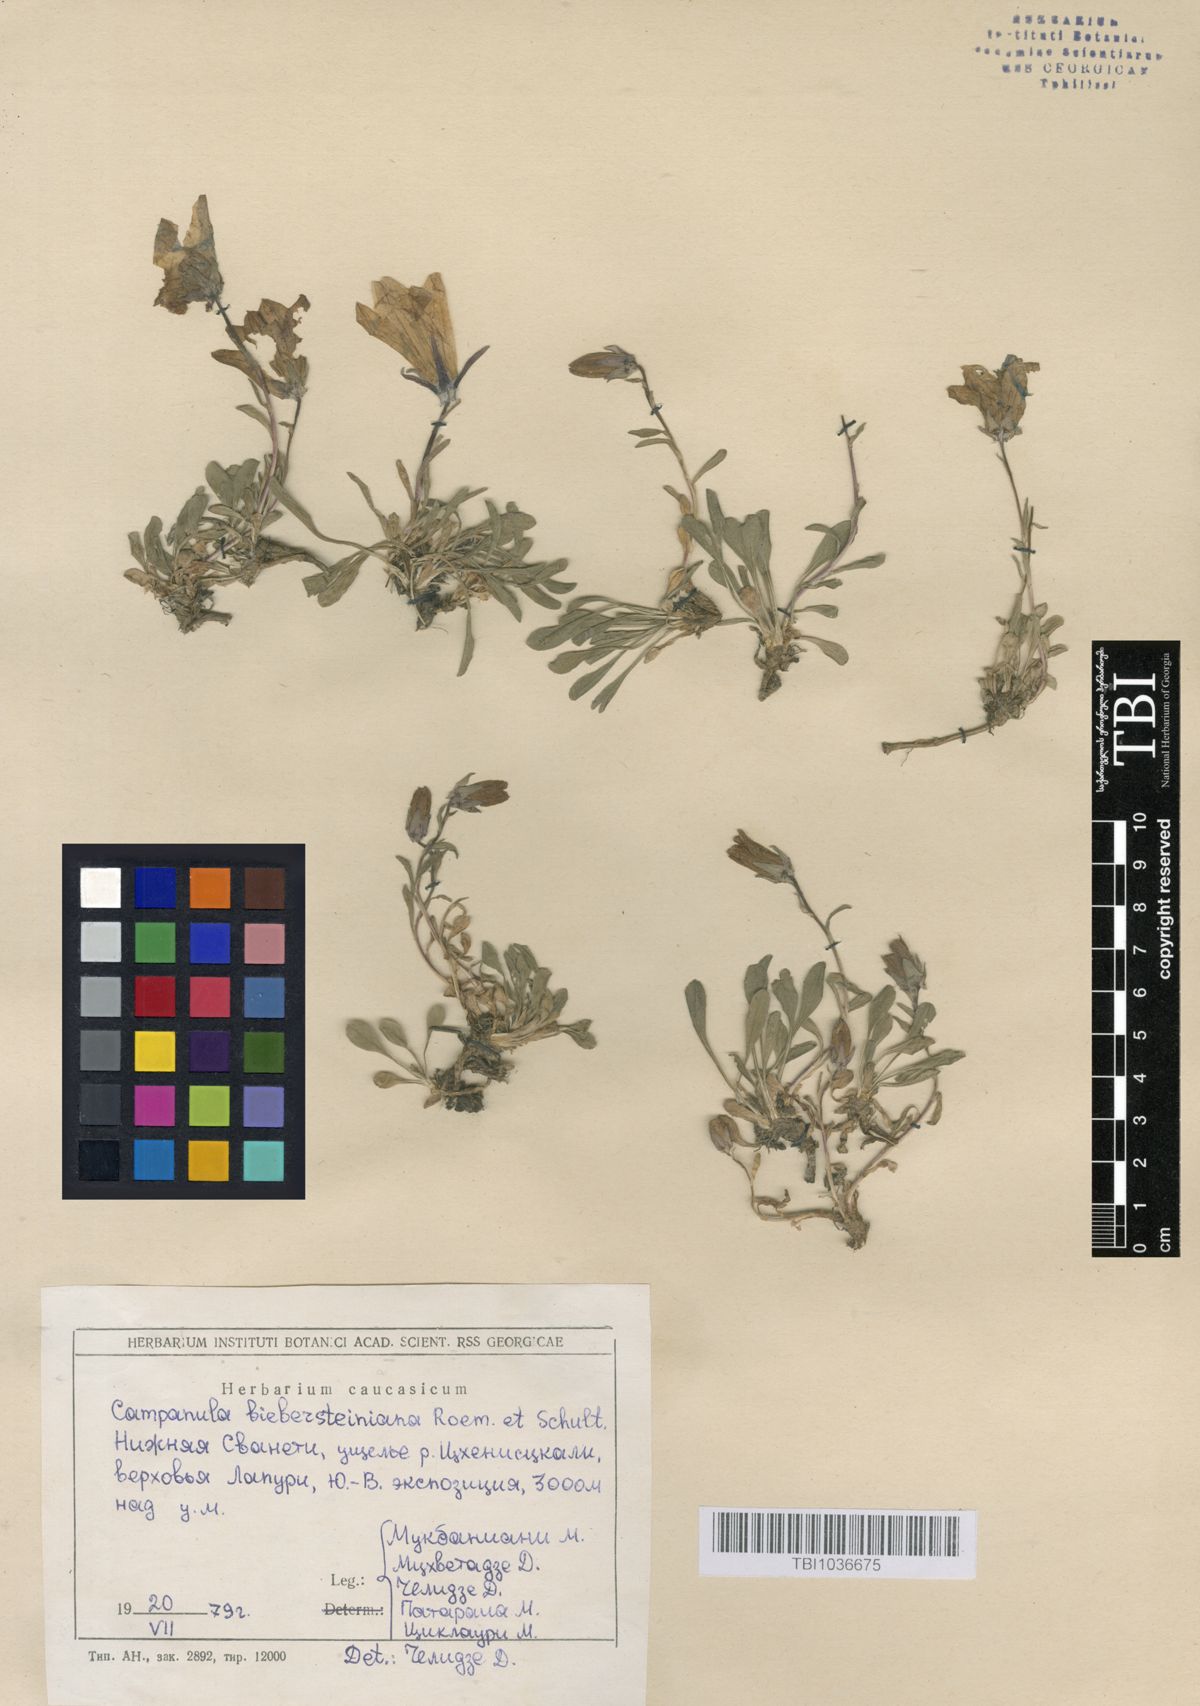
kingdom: Plantae
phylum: Tracheophyta
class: Magnoliopsida
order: Asterales
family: Campanulaceae
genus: Campanula
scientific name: Campanula tridentata
